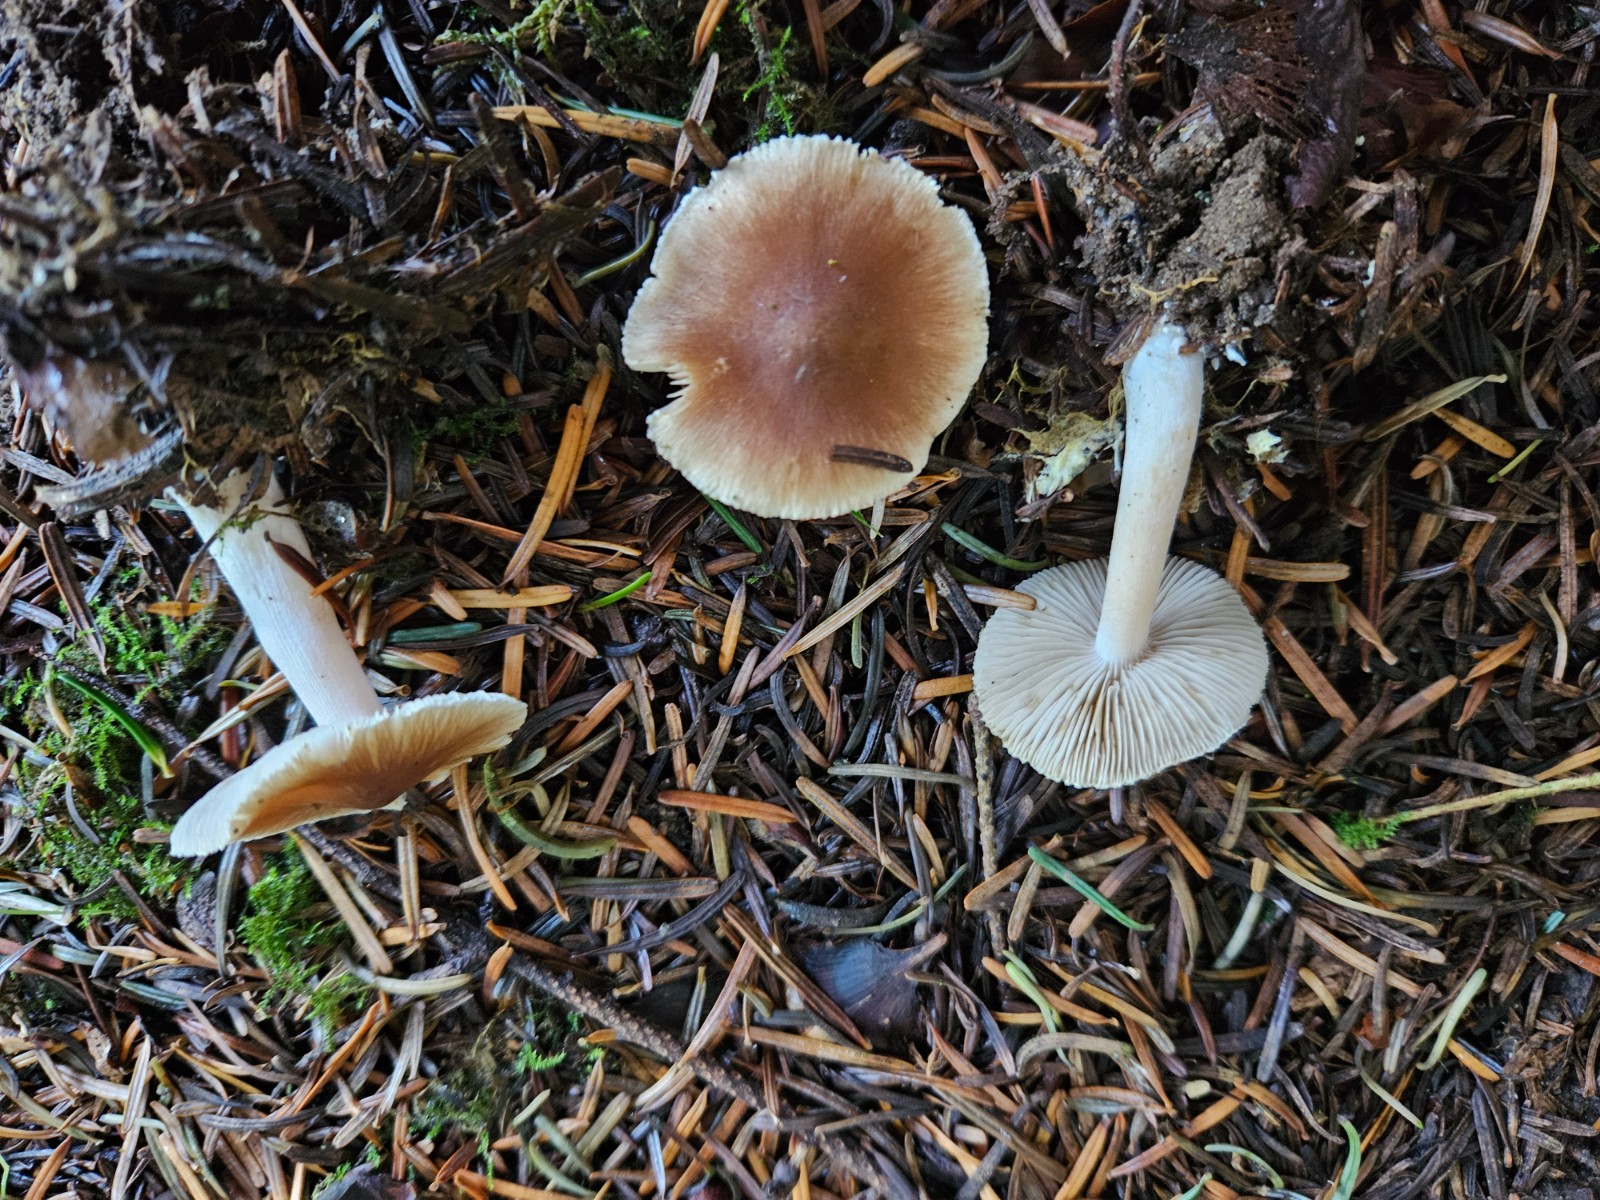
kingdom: Fungi
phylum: Basidiomycota
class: Agaricomycetes
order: Agaricales
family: Inocybaceae
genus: Inocybe
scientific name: Inocybe
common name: trævlhat
